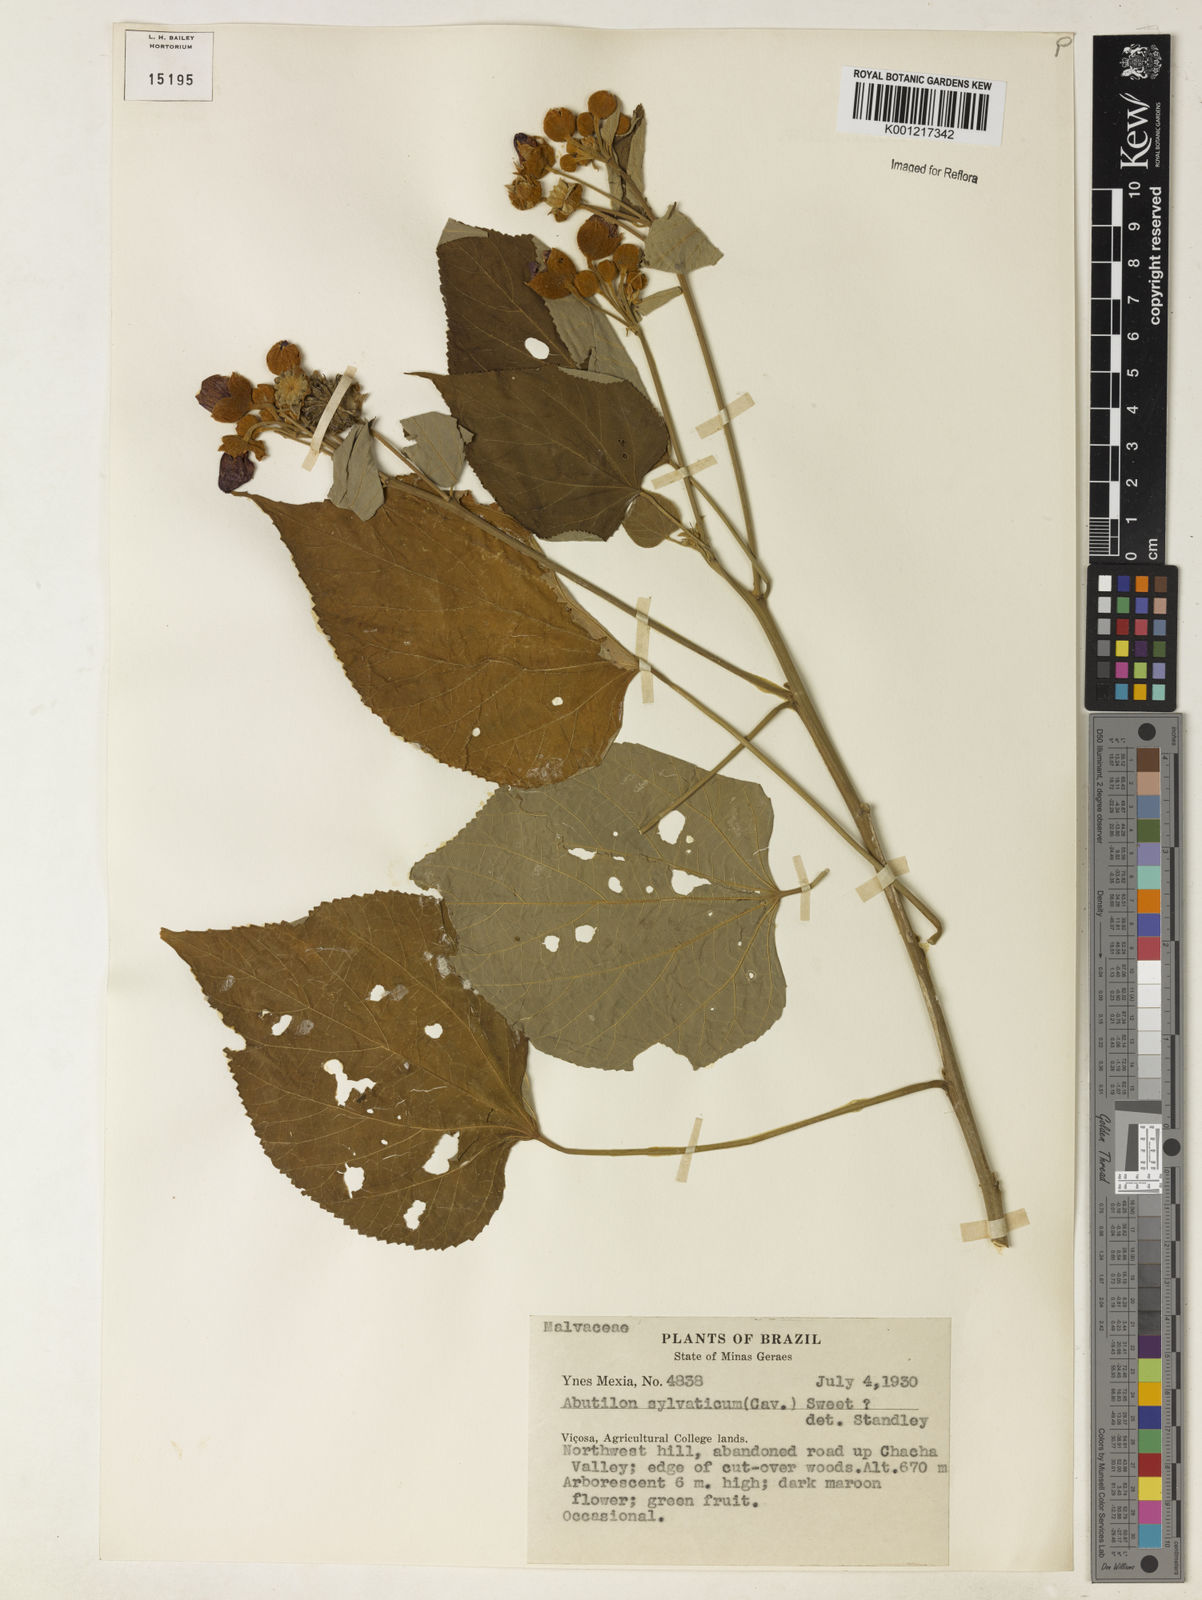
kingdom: Plantae
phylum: Tracheophyta
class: Magnoliopsida
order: Malvales
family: Malvaceae
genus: Abutilon
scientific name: Abutilon
